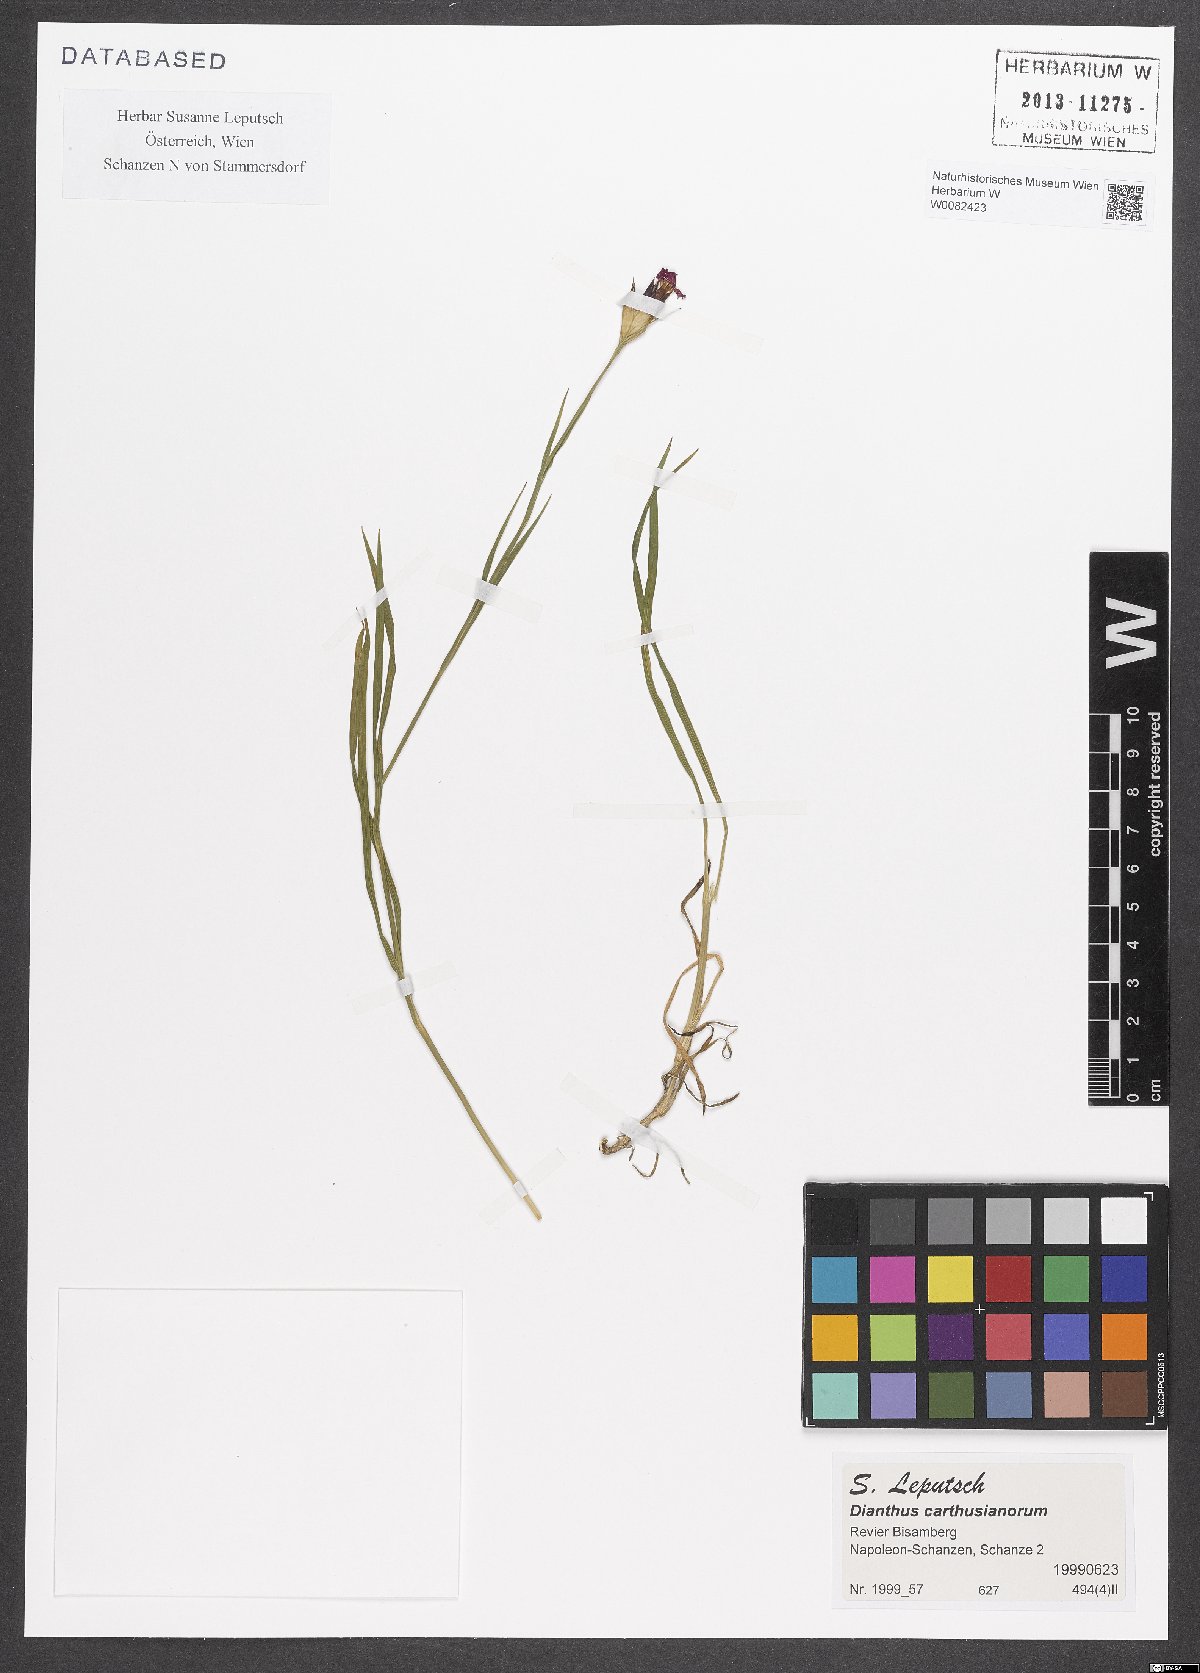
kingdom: Plantae
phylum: Tracheophyta
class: Magnoliopsida
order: Caryophyllales
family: Caryophyllaceae
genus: Dianthus
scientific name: Dianthus carthusianorum
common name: Carthusian pink
